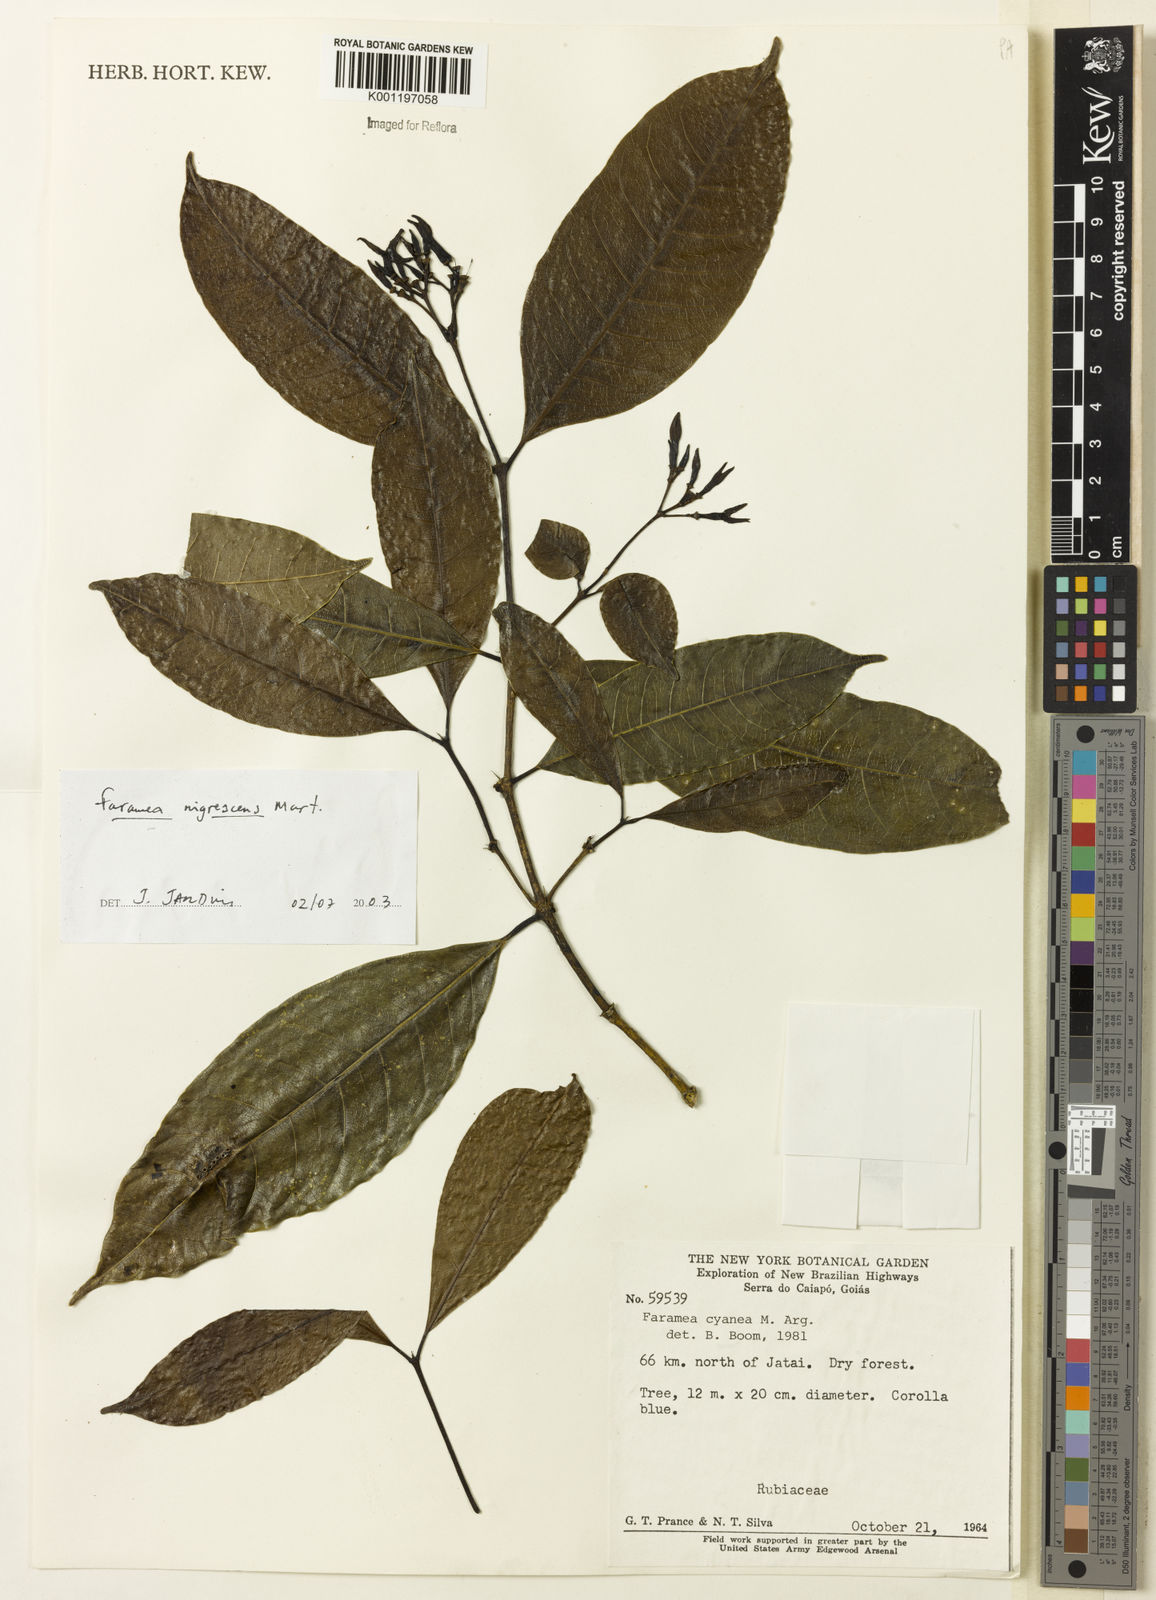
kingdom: Plantae
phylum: Tracheophyta
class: Magnoliopsida
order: Gentianales
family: Rubiaceae
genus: Faramea
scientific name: Faramea nigrescens
